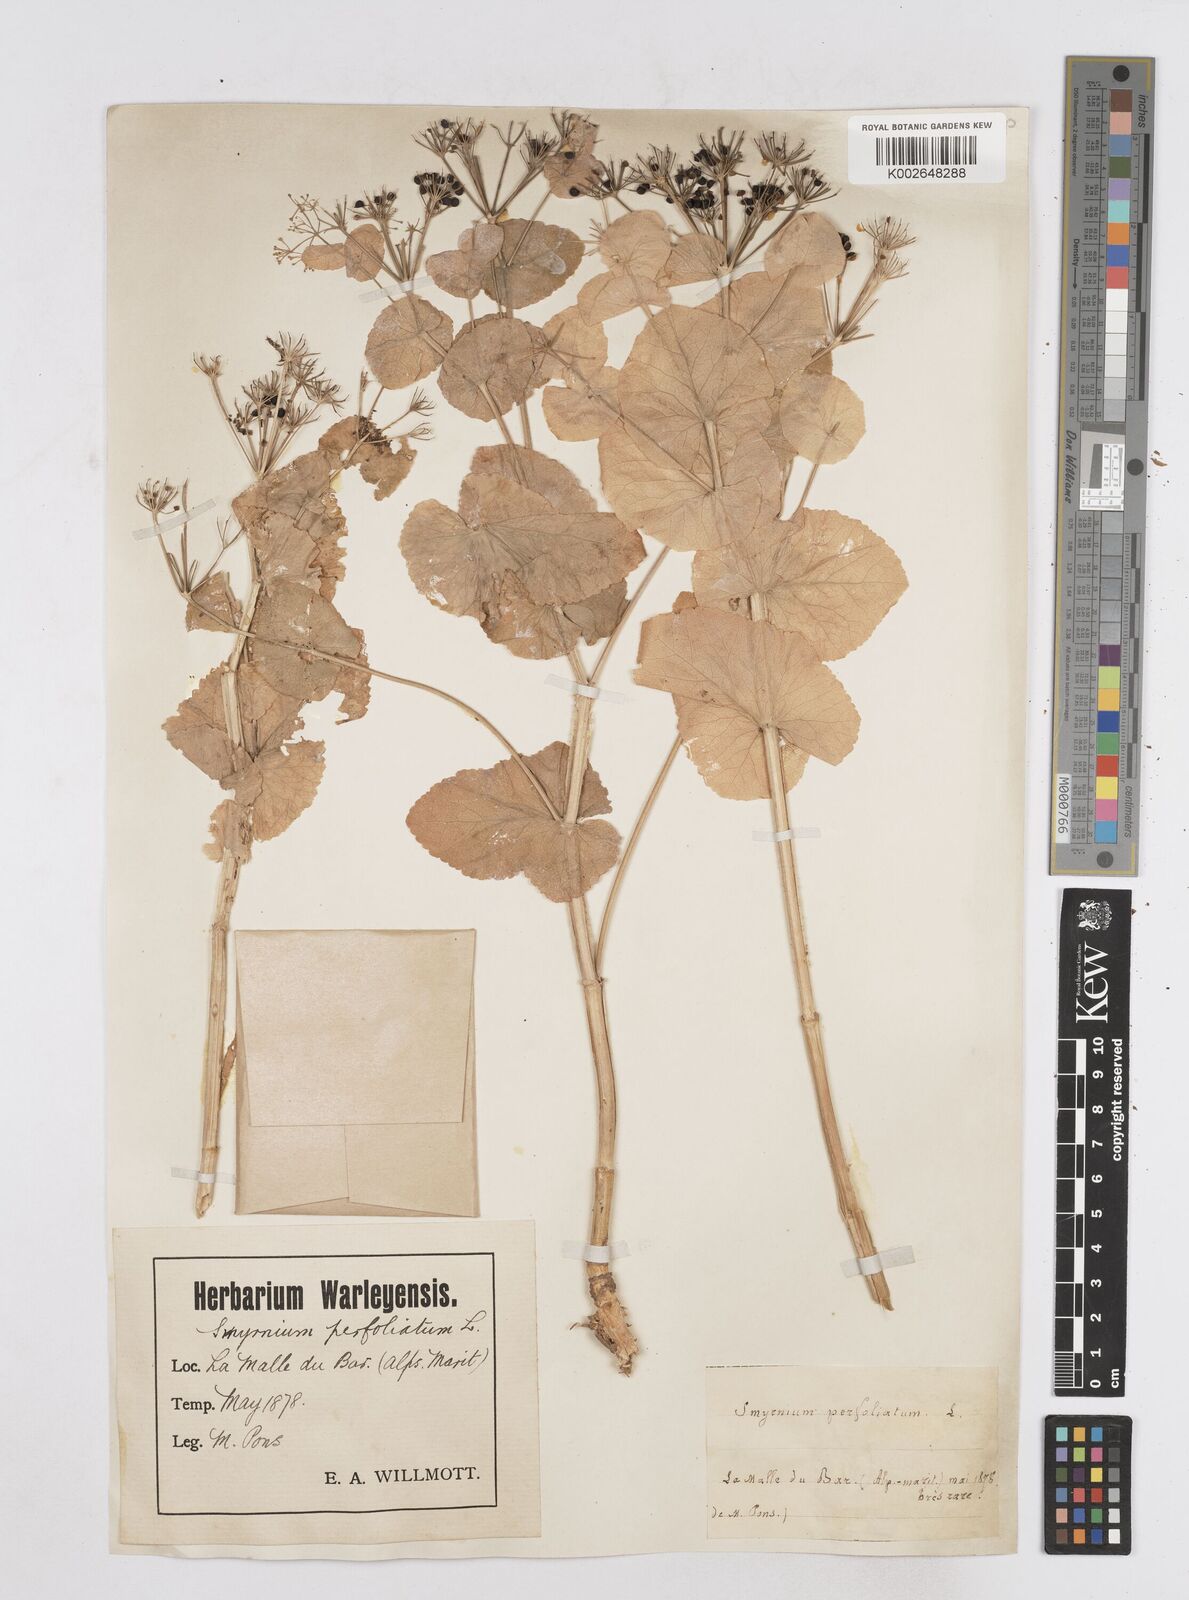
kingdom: Plantae
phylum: Tracheophyta
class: Magnoliopsida
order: Apiales
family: Apiaceae
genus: Smyrnium
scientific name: Smyrnium perfoliatum
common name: Perfoliate alexanders
